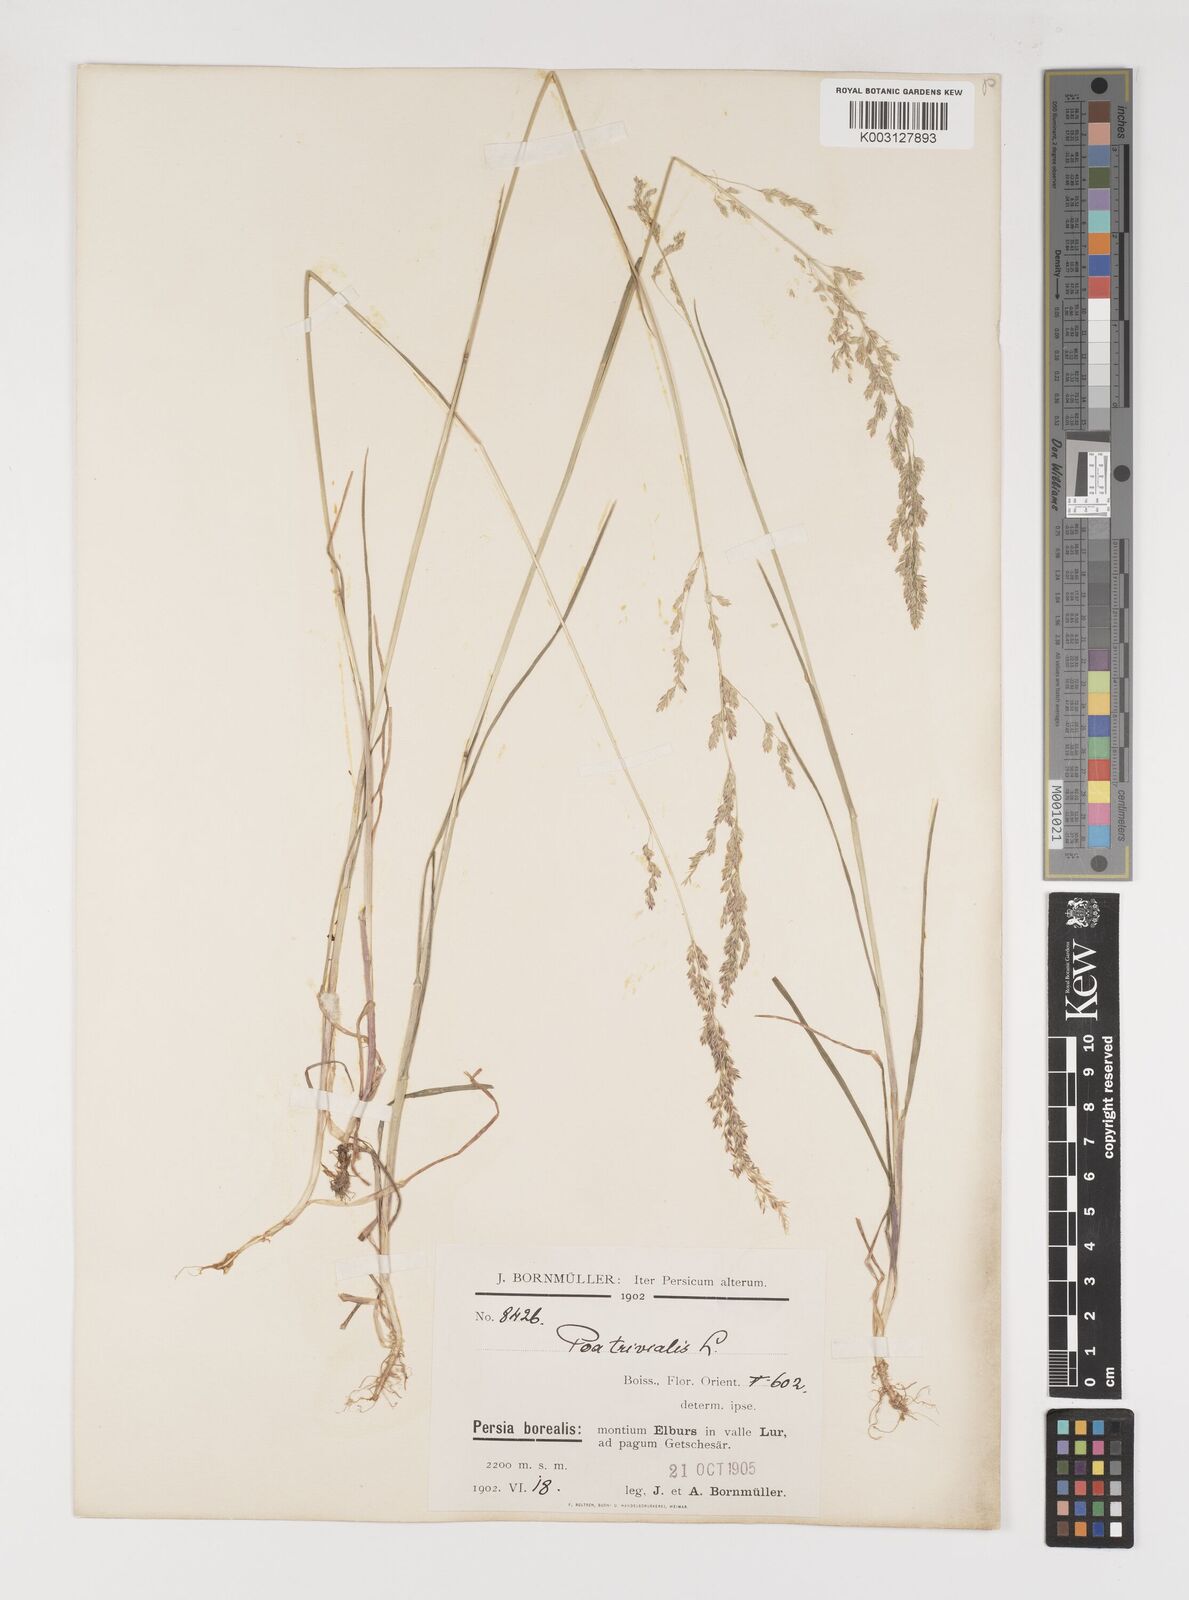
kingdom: Plantae
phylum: Tracheophyta
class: Liliopsida
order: Poales
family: Poaceae
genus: Poa
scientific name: Poa trivialis
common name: Rough bluegrass
